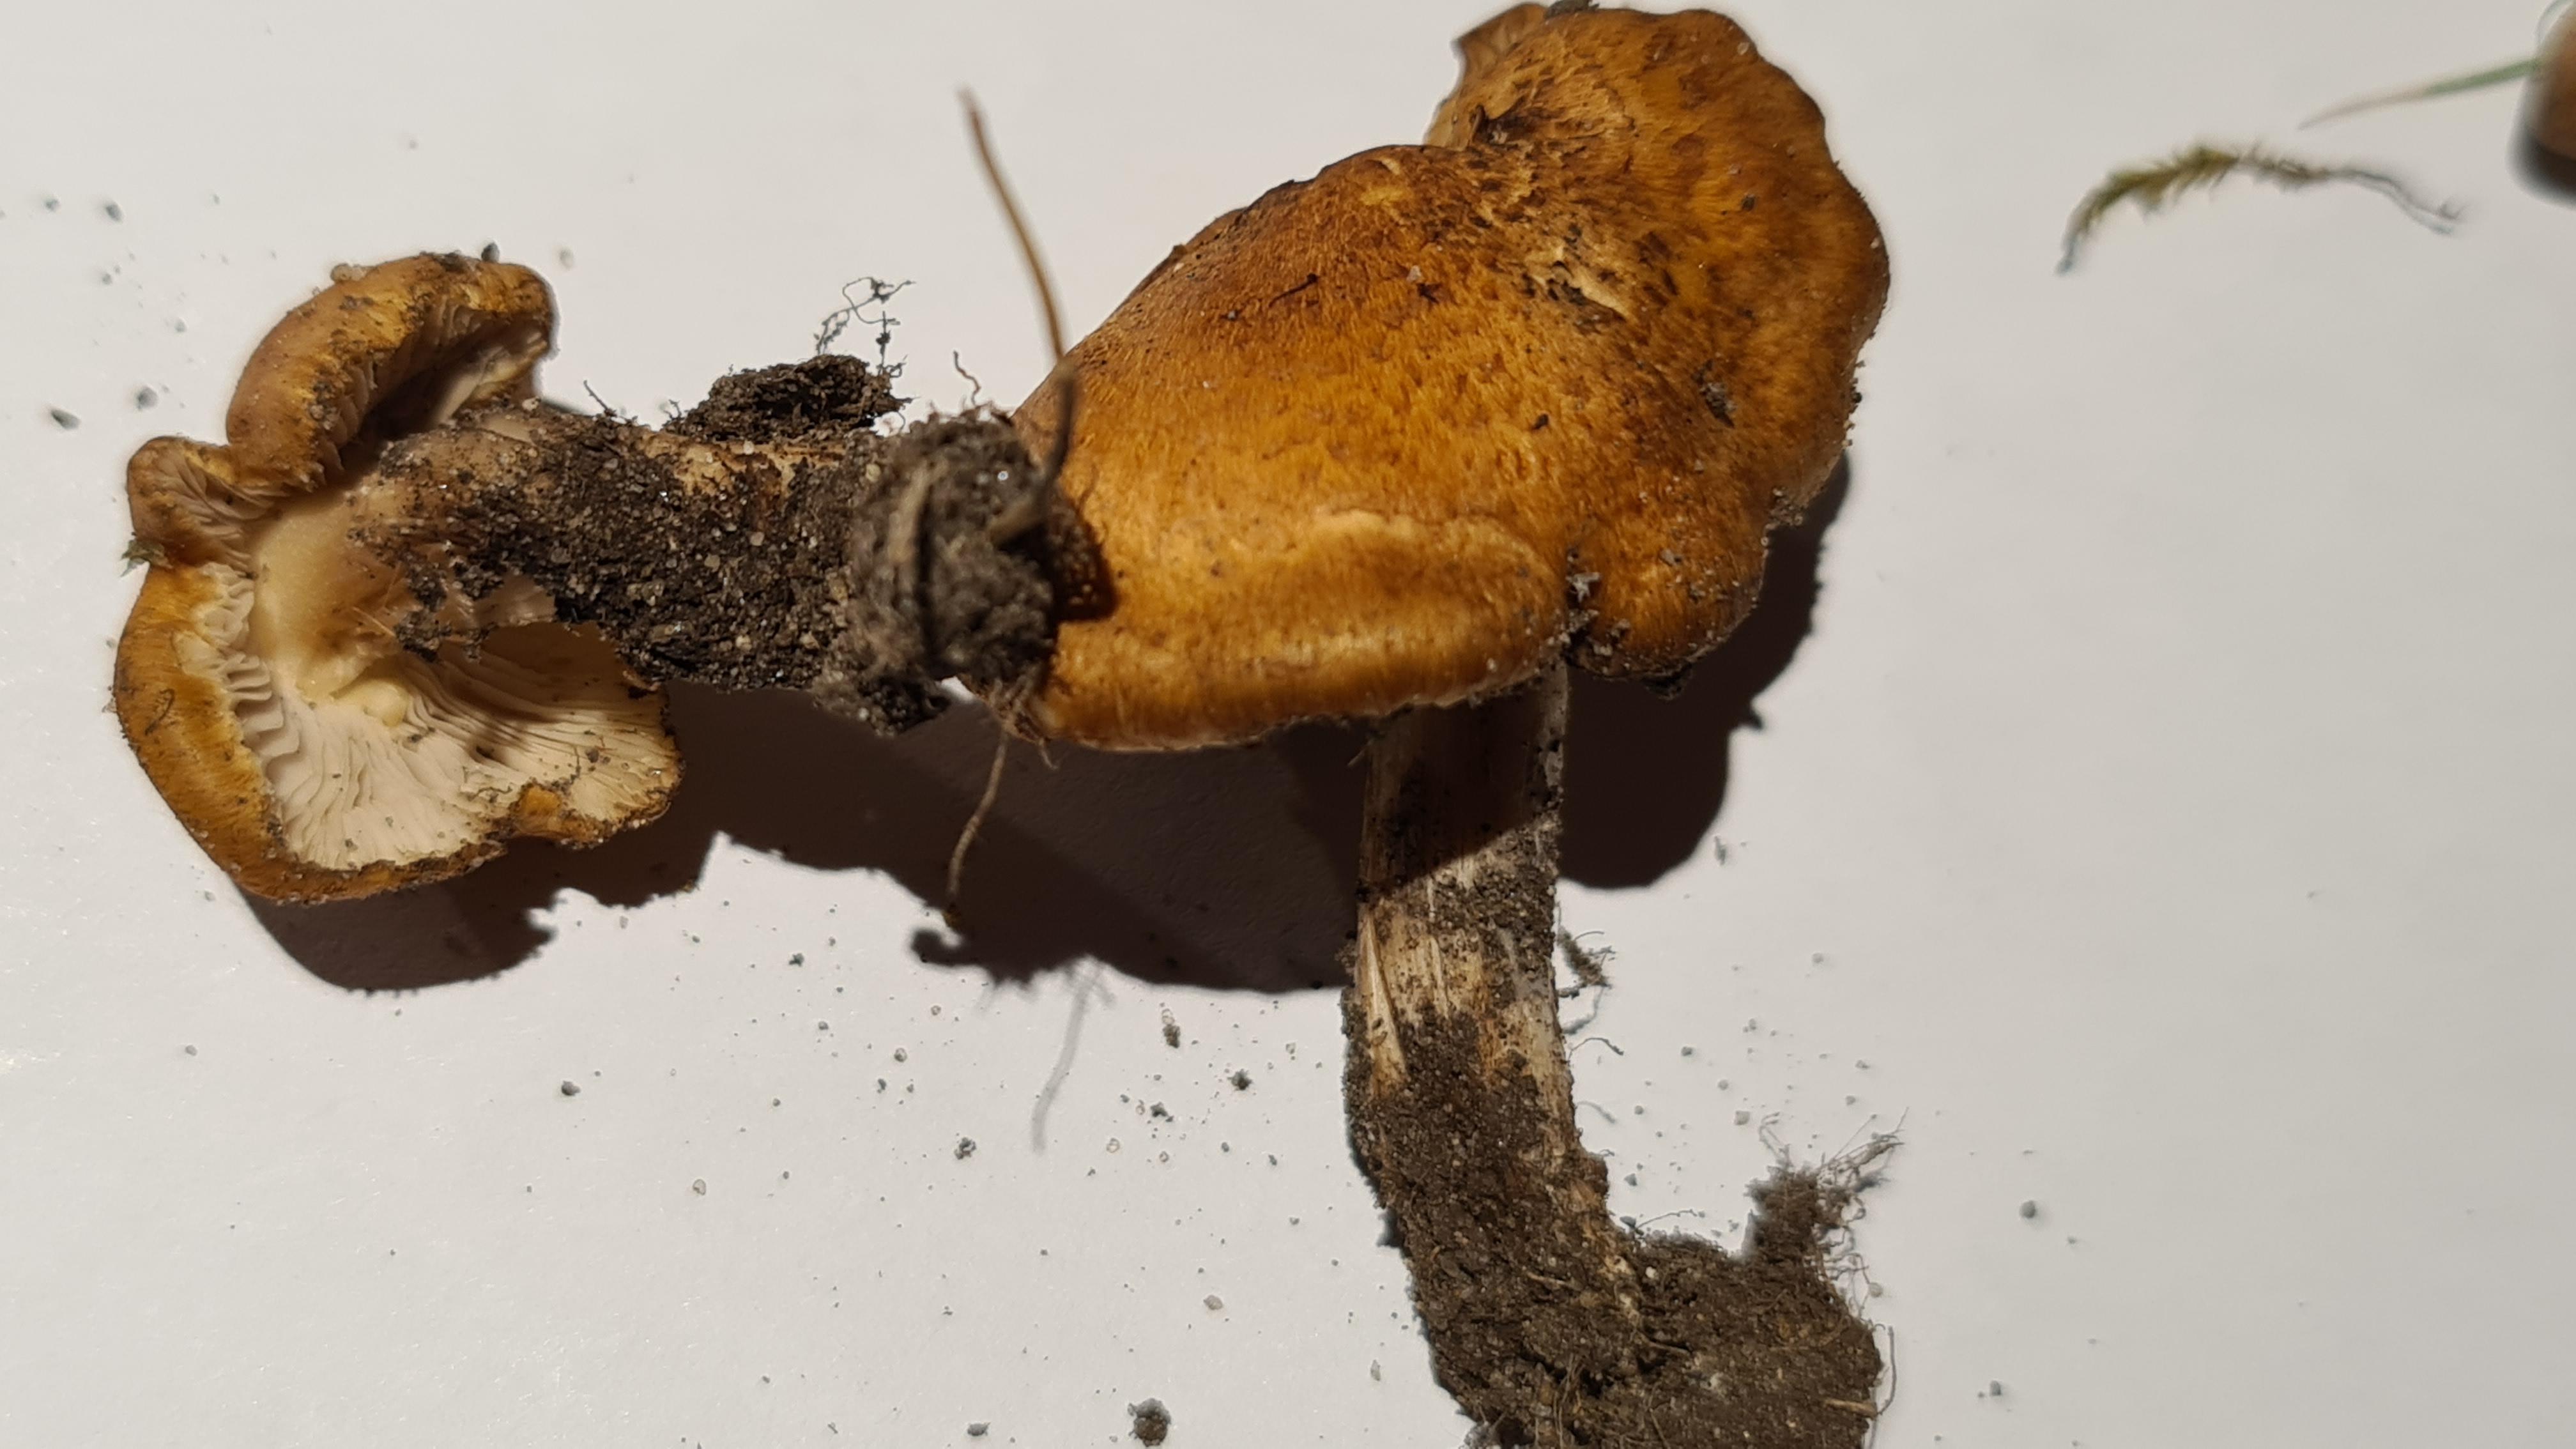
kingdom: Fungi
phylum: Basidiomycota
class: Agaricomycetes
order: Agaricales
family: Inocybaceae
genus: Inocybe
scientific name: Inocybe
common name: trævlhat
